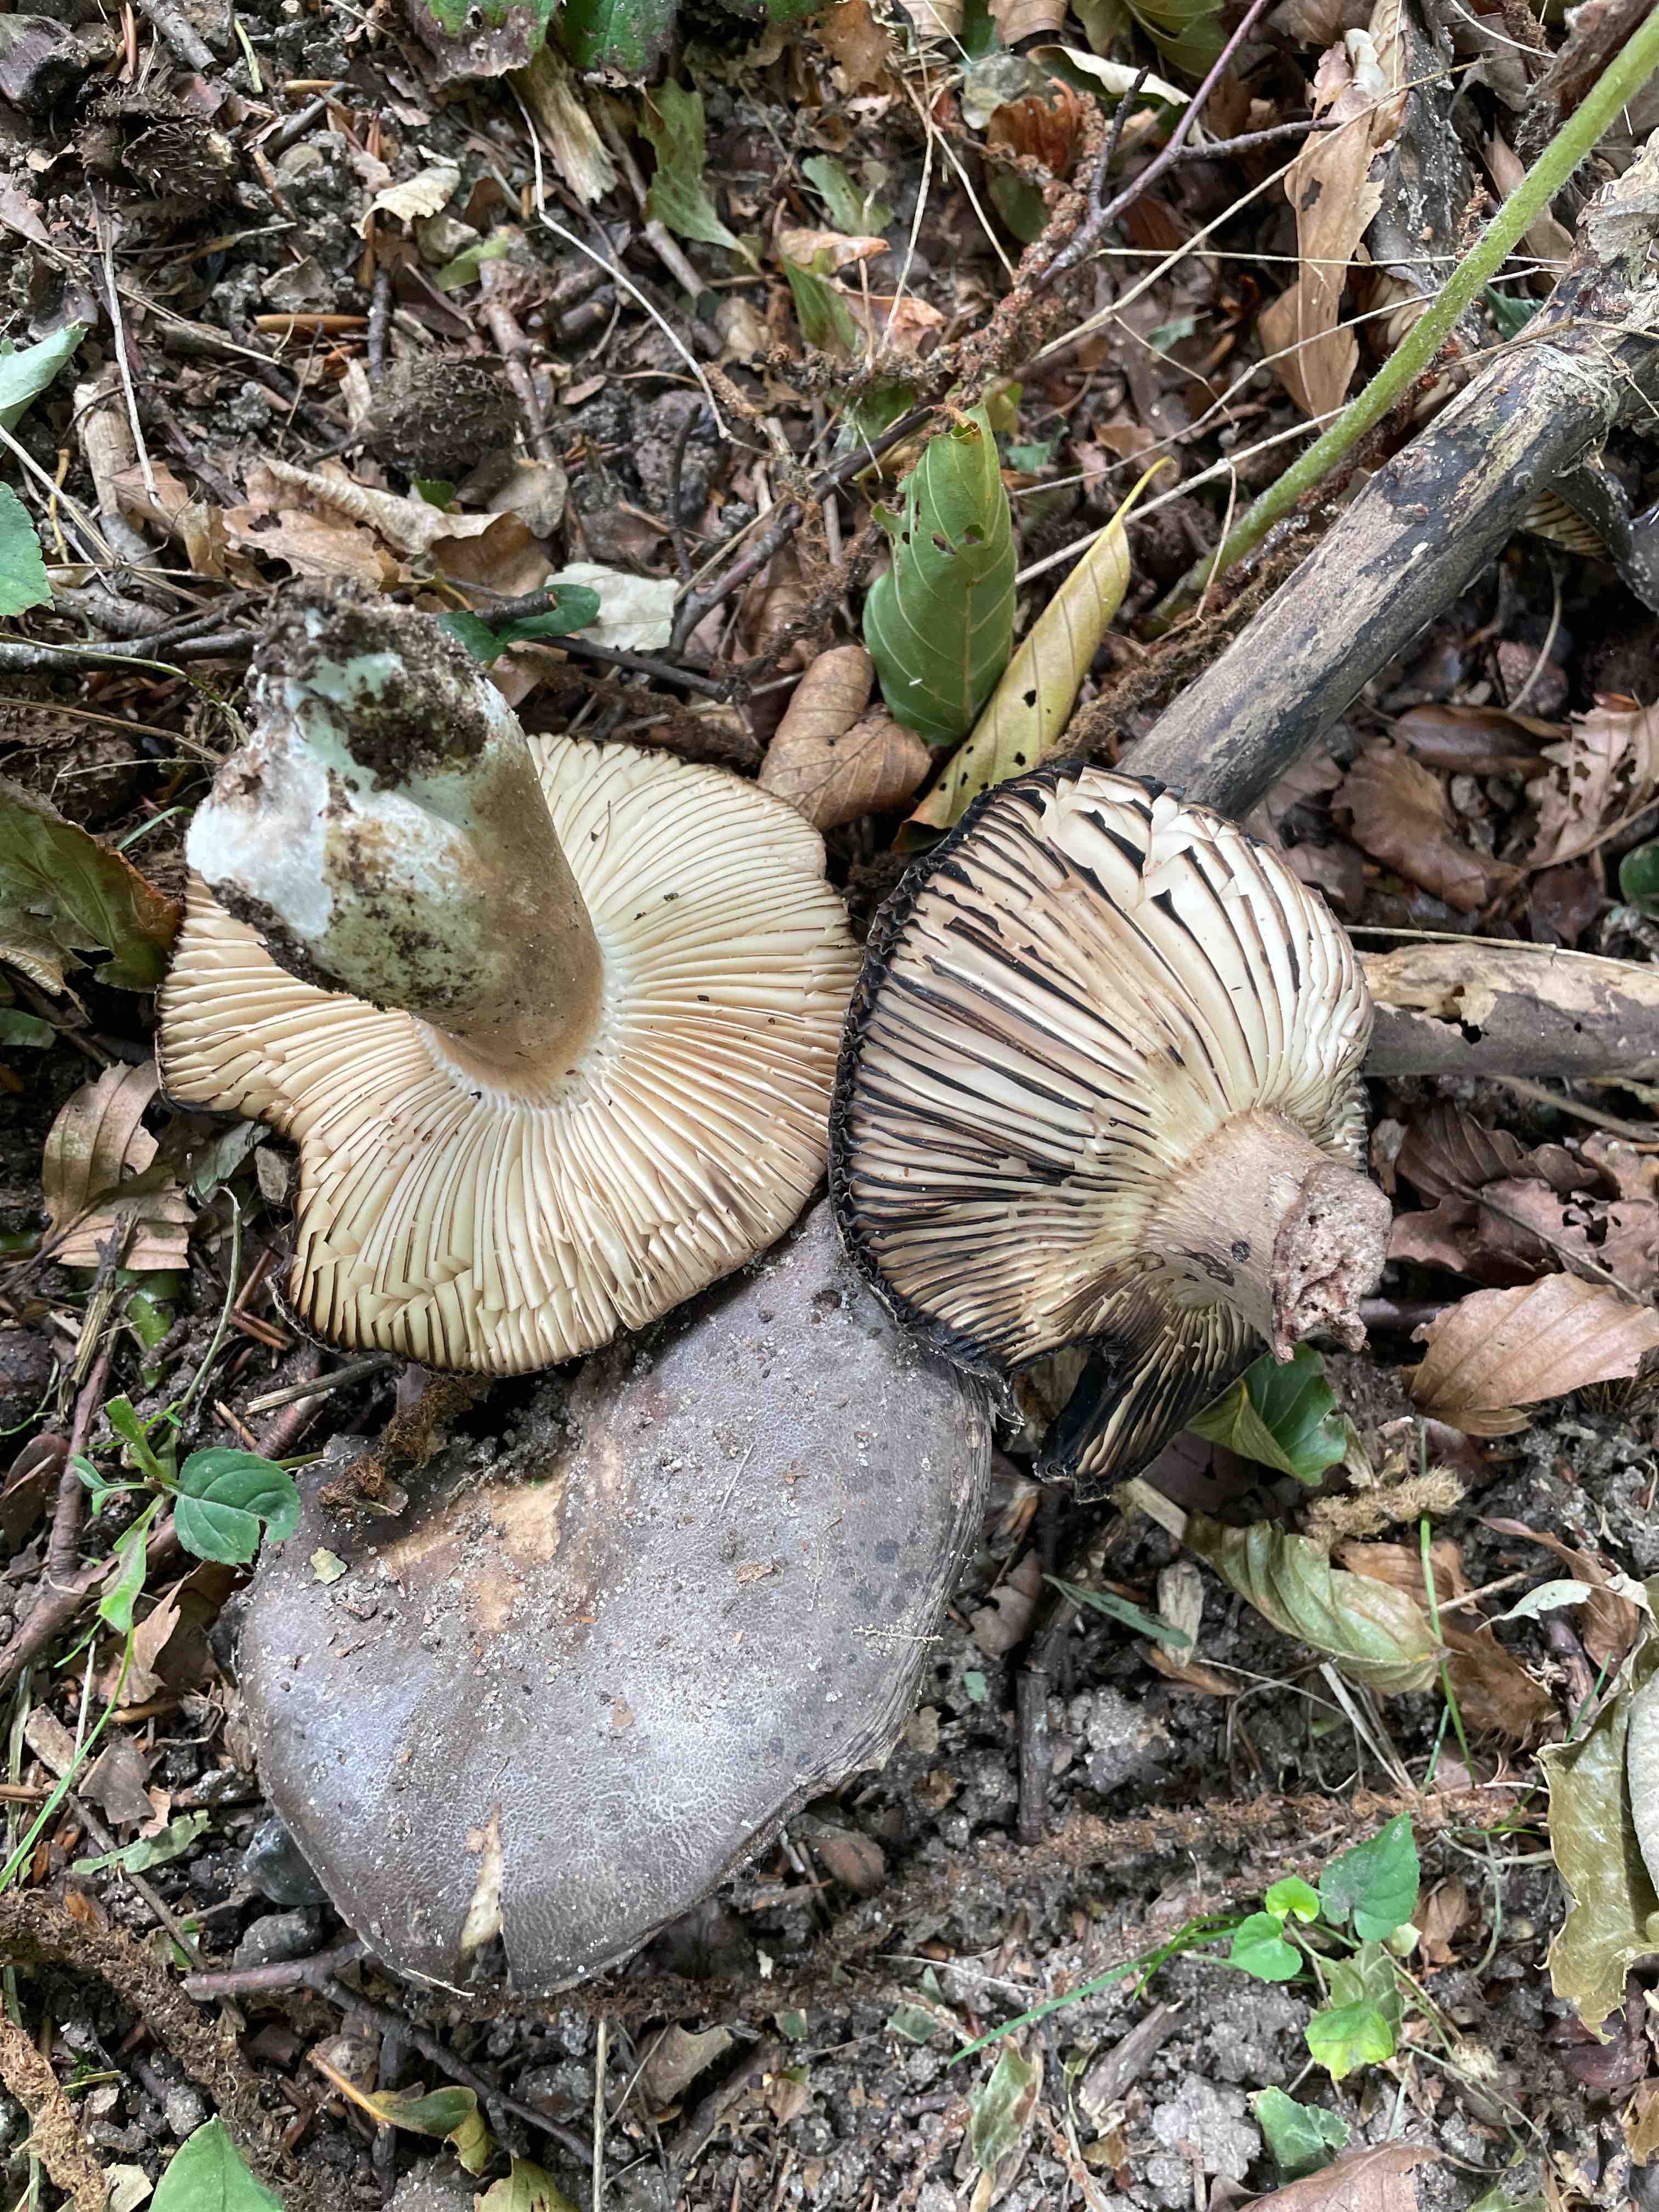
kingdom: Fungi
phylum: Basidiomycota
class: Agaricomycetes
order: Russulales
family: Russulaceae
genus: Russula
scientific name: Russula adusta
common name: sværtende skørhat
